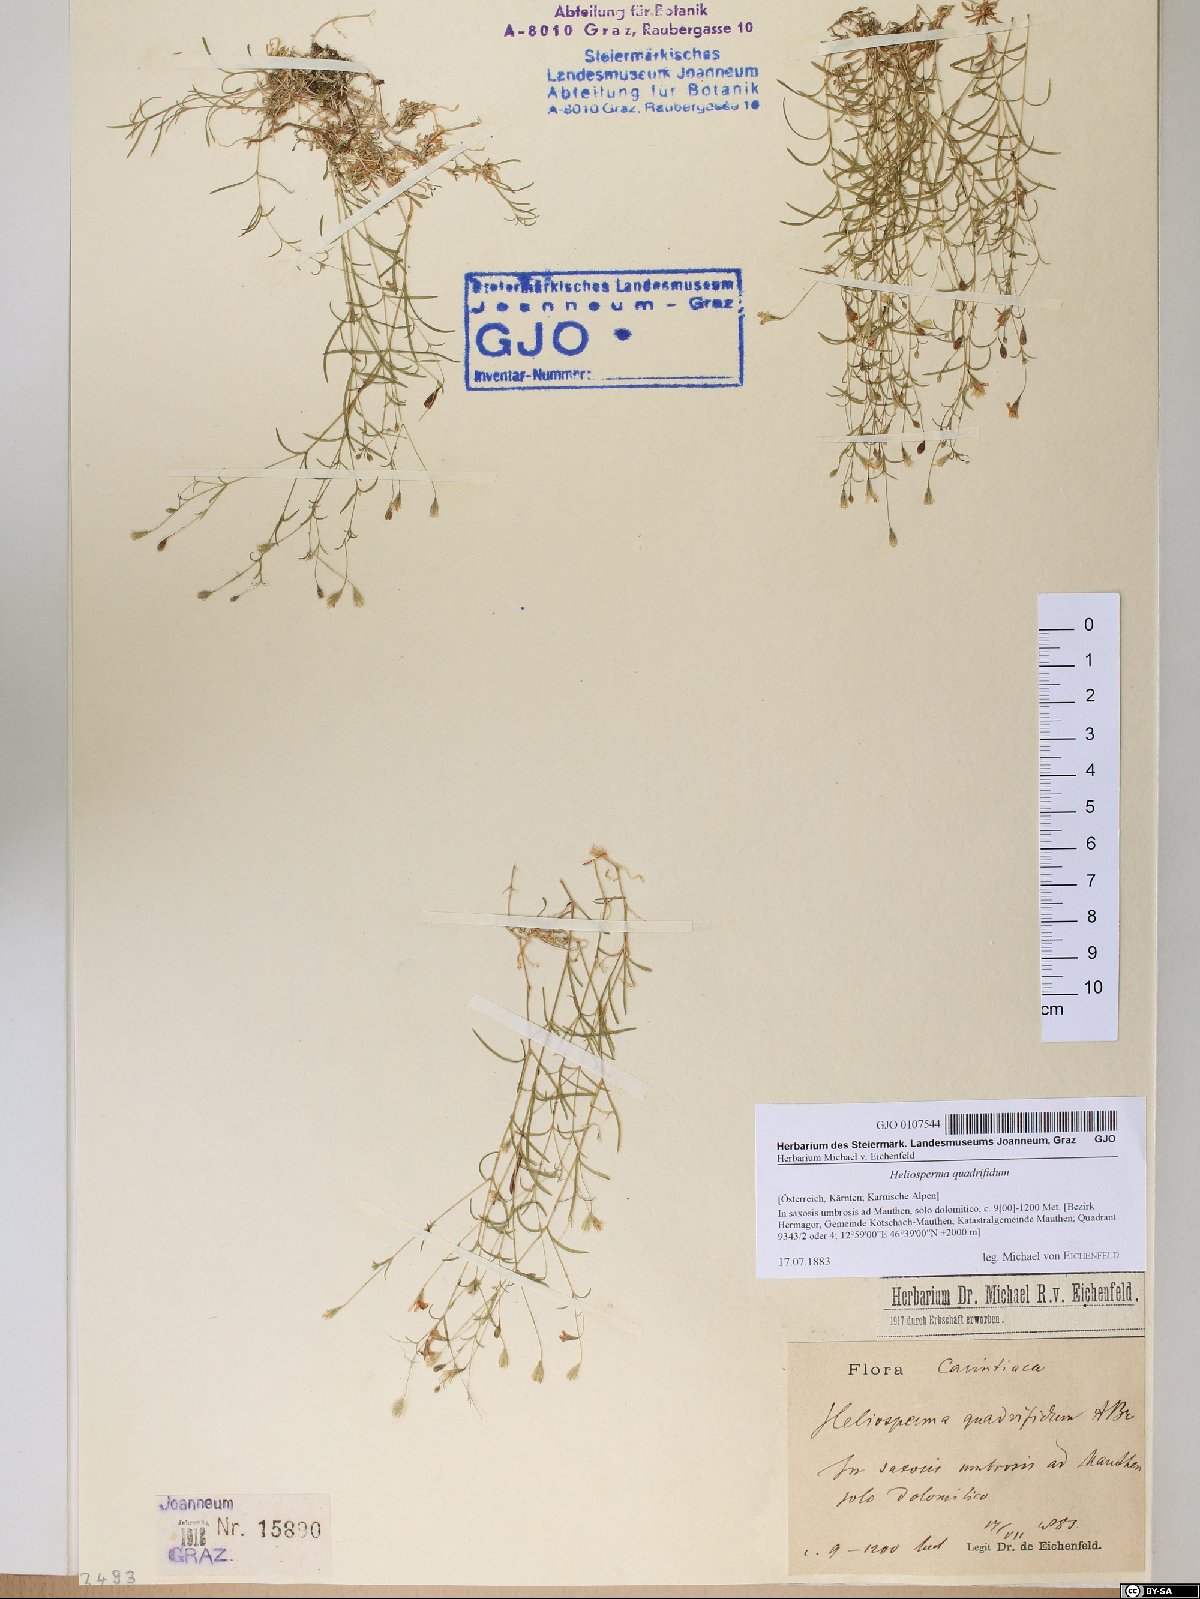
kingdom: Plantae
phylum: Tracheophyta
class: Magnoliopsida
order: Caryophyllales
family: Caryophyllaceae
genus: Heliosperma
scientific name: Heliosperma alpestre
